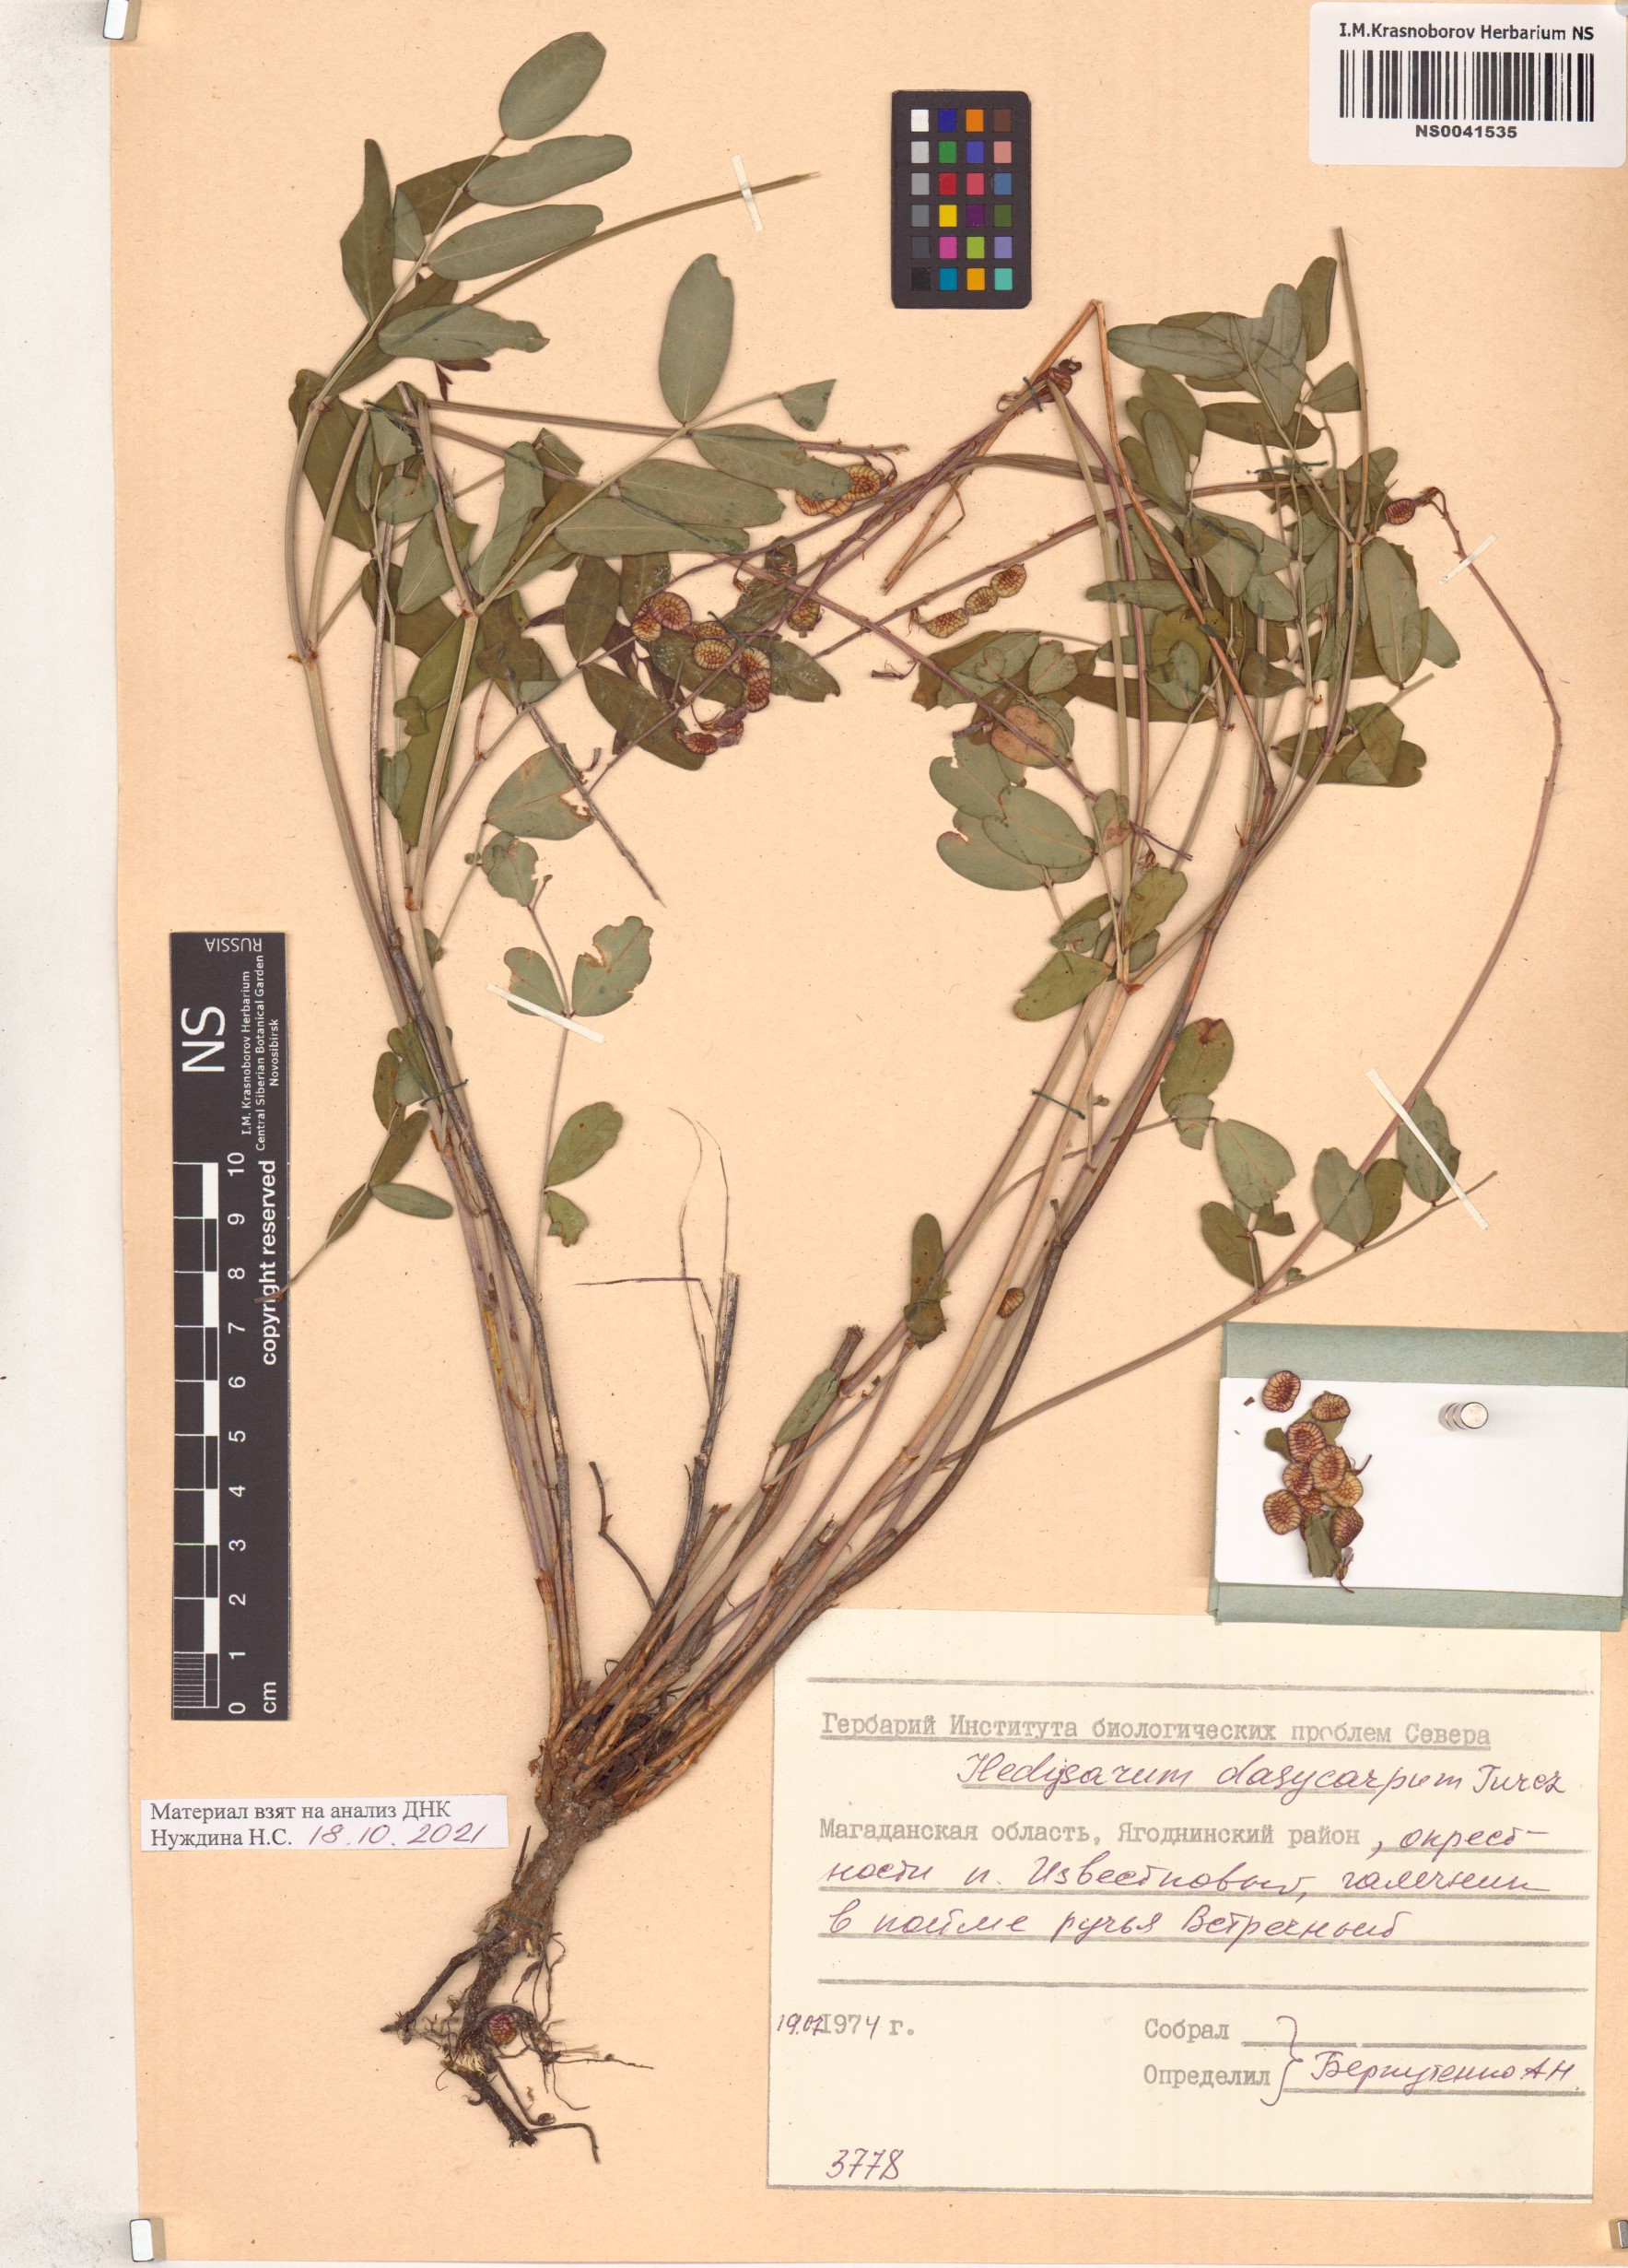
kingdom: Plantae
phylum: Tracheophyta
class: Magnoliopsida
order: Fabales
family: Fabaceae
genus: Hedysarum
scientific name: Hedysarum dasycarpum
